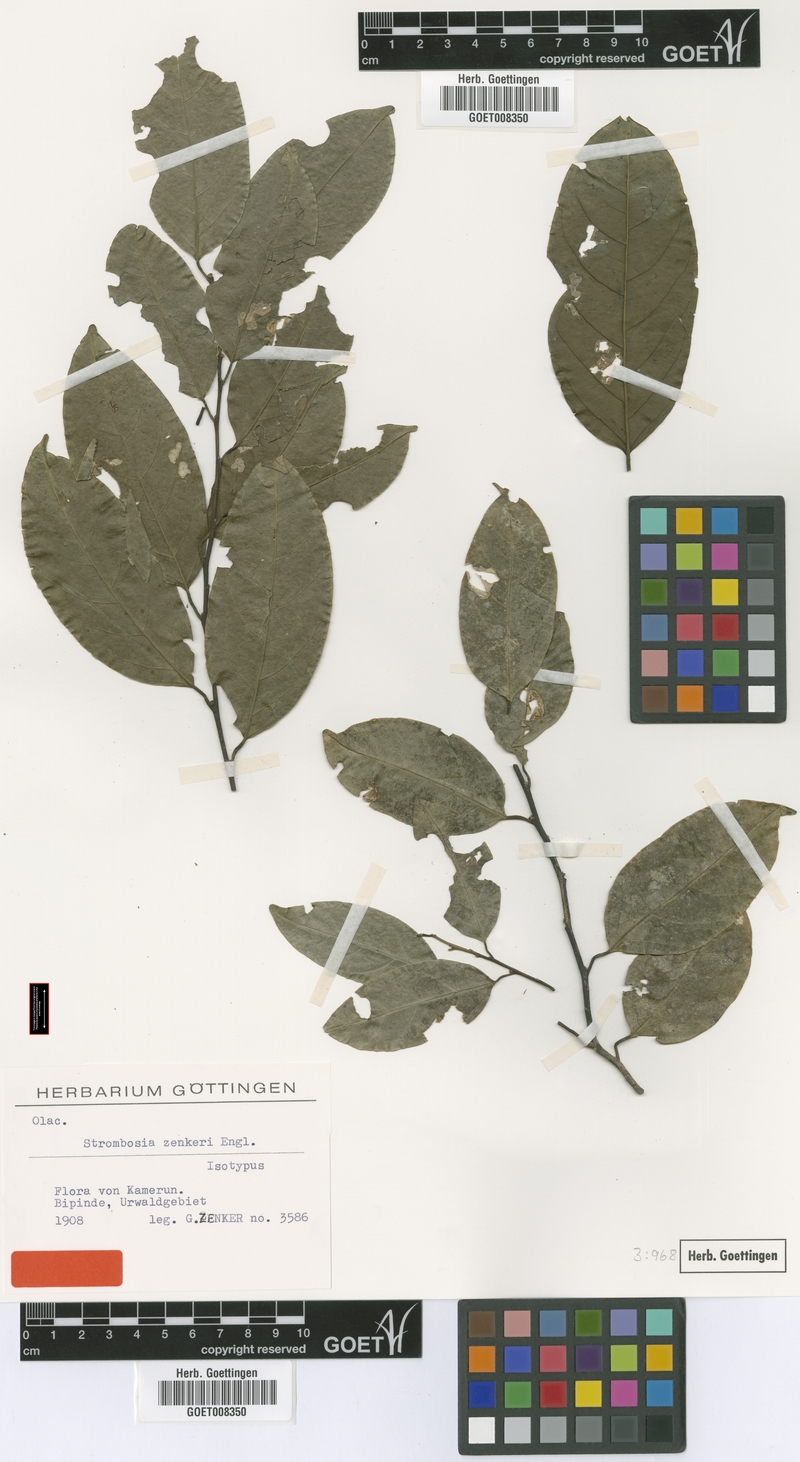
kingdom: Plantae
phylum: Tracheophyta
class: Magnoliopsida
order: Santalales
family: Strombosiaceae
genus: Strombosia
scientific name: Strombosia zenkeri
